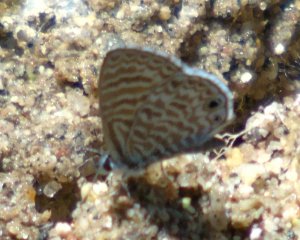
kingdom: Animalia
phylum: Arthropoda
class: Insecta
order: Lepidoptera
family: Lycaenidae
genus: Leptotes
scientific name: Leptotes marina
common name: Marine Blue
